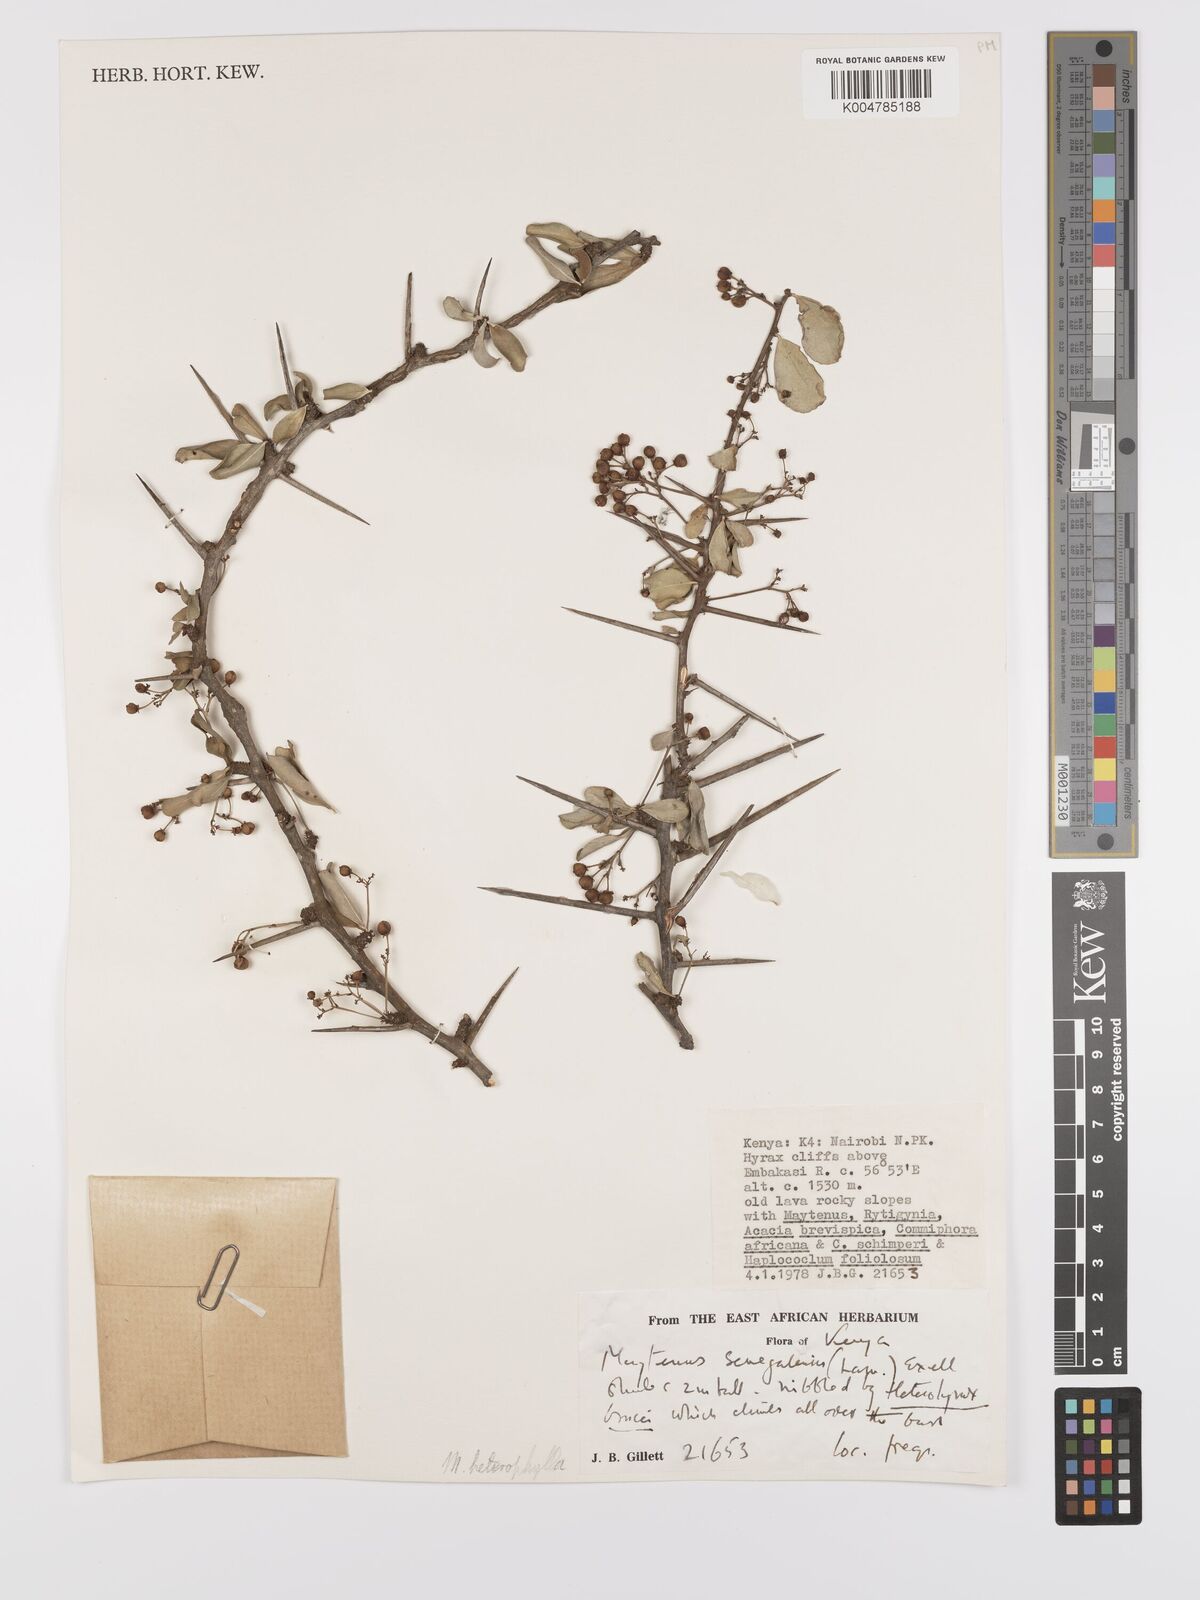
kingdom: Plantae
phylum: Tracheophyta
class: Magnoliopsida
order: Celastrales
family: Celastraceae
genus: Gymnosporia
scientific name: Gymnosporia heterophylla
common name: Angle-stem spikethorn
